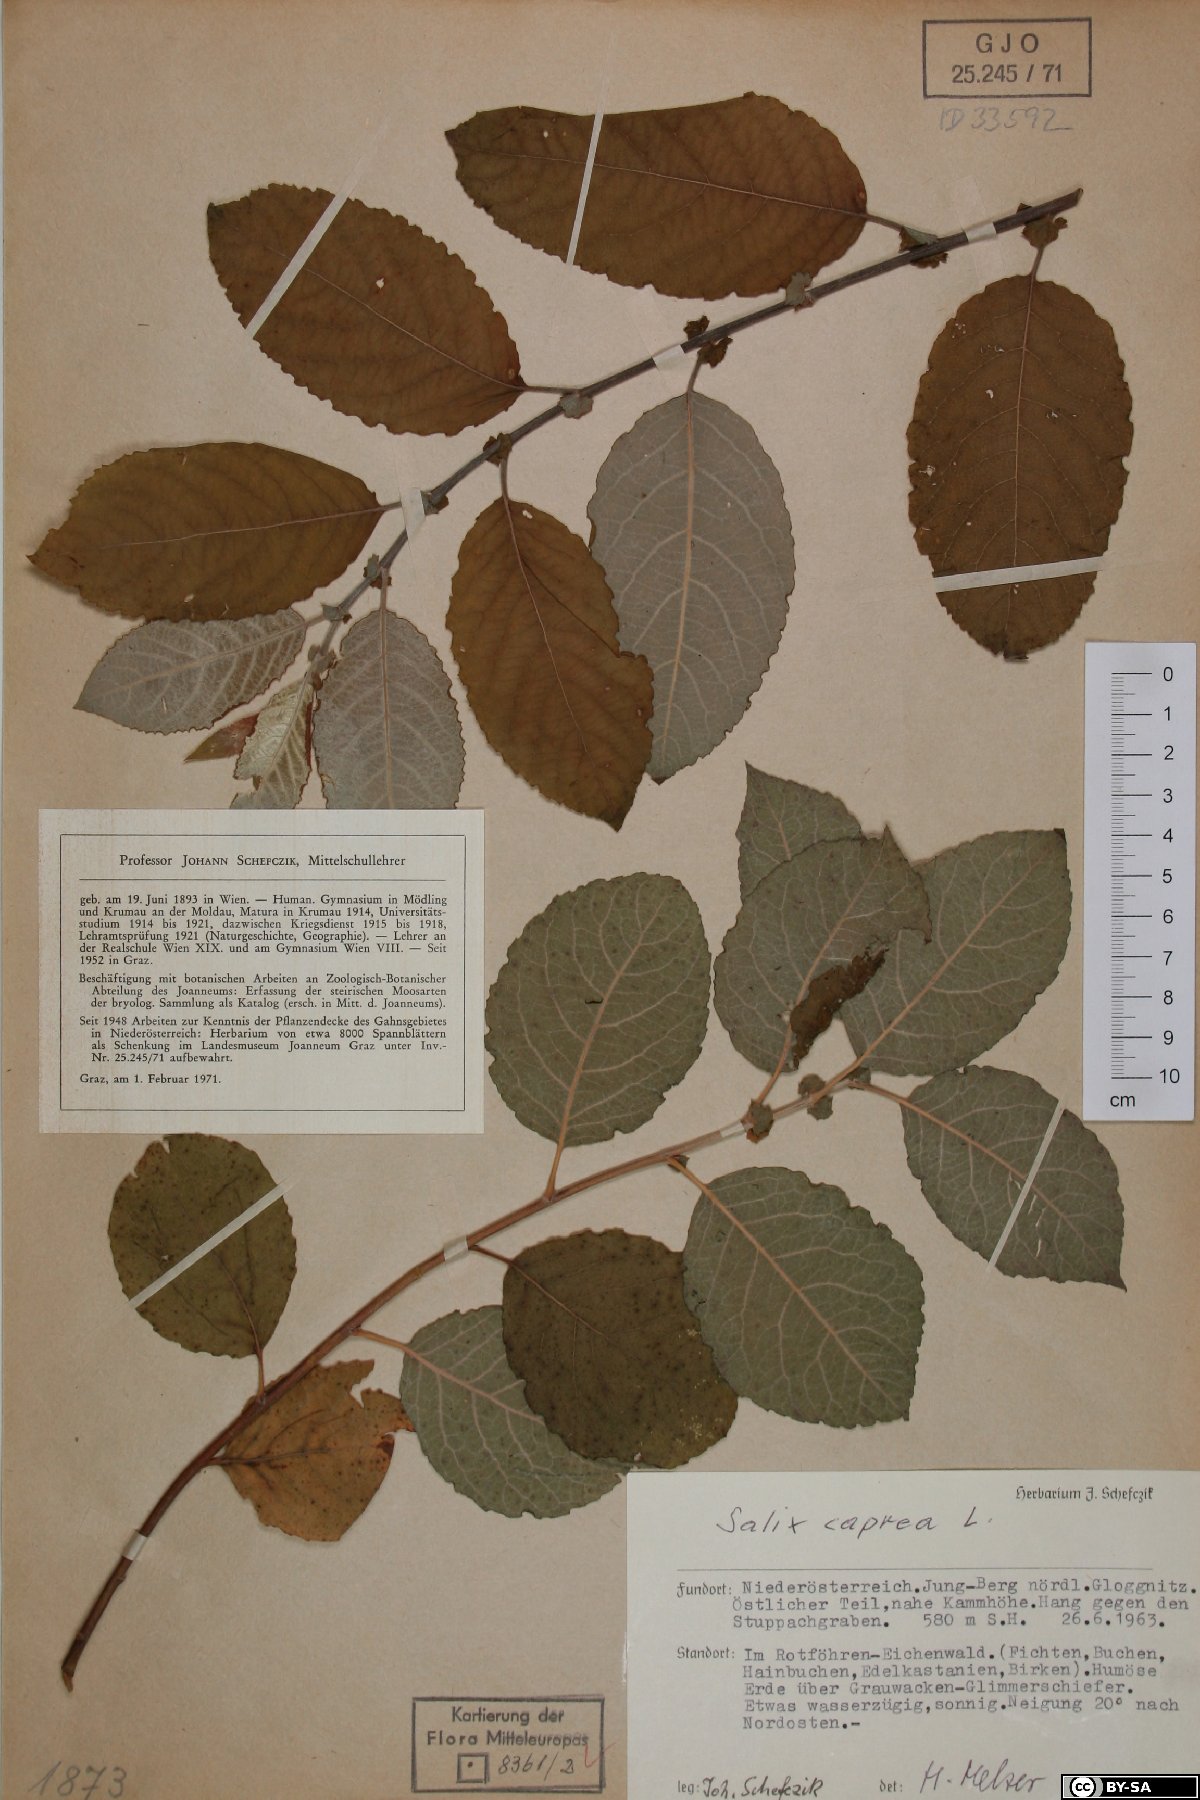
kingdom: Plantae
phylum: Tracheophyta
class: Magnoliopsida
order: Malpighiales
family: Salicaceae
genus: Salix
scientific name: Salix caprea
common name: Goat willow
